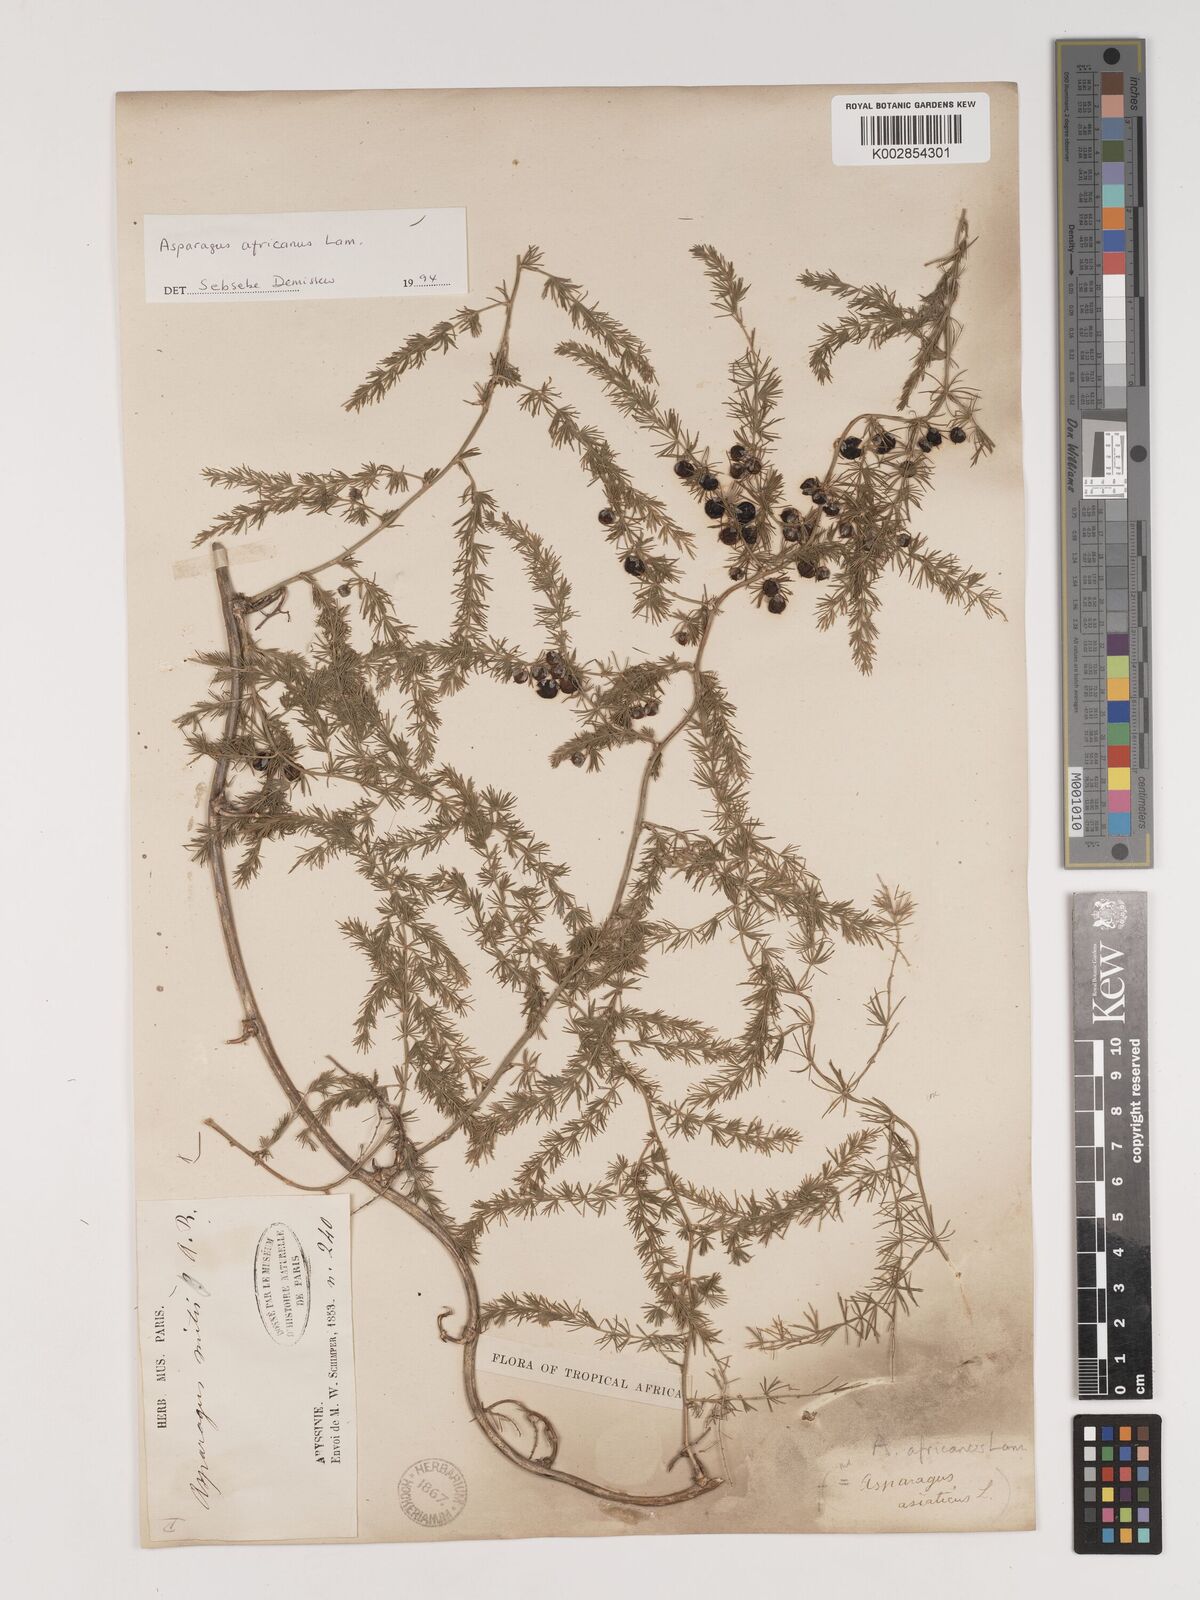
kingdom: Plantae
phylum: Tracheophyta
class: Liliopsida
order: Asparagales
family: Asparagaceae
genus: Asparagus
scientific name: Asparagus africanus
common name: Asparagus-fern
